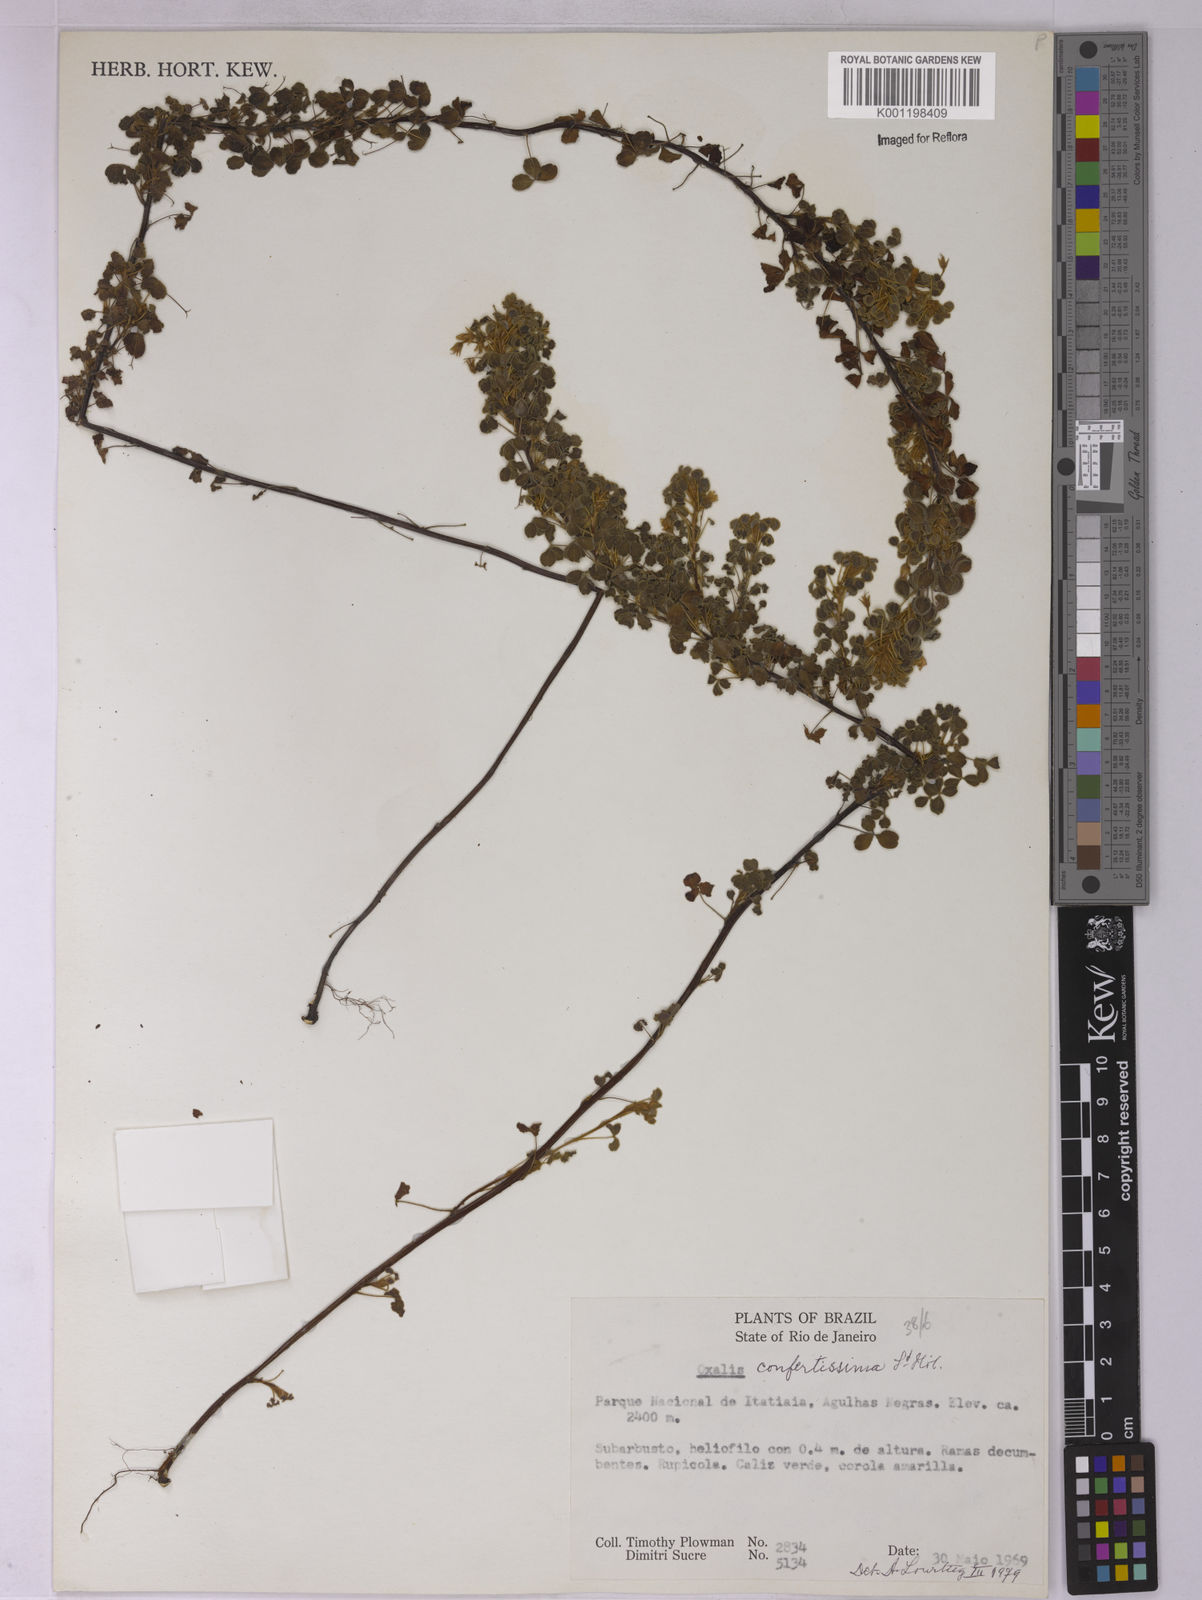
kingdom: Plantae
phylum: Tracheophyta
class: Magnoliopsida
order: Oxalidales
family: Oxalidaceae
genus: Oxalis
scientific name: Oxalis confertissima
